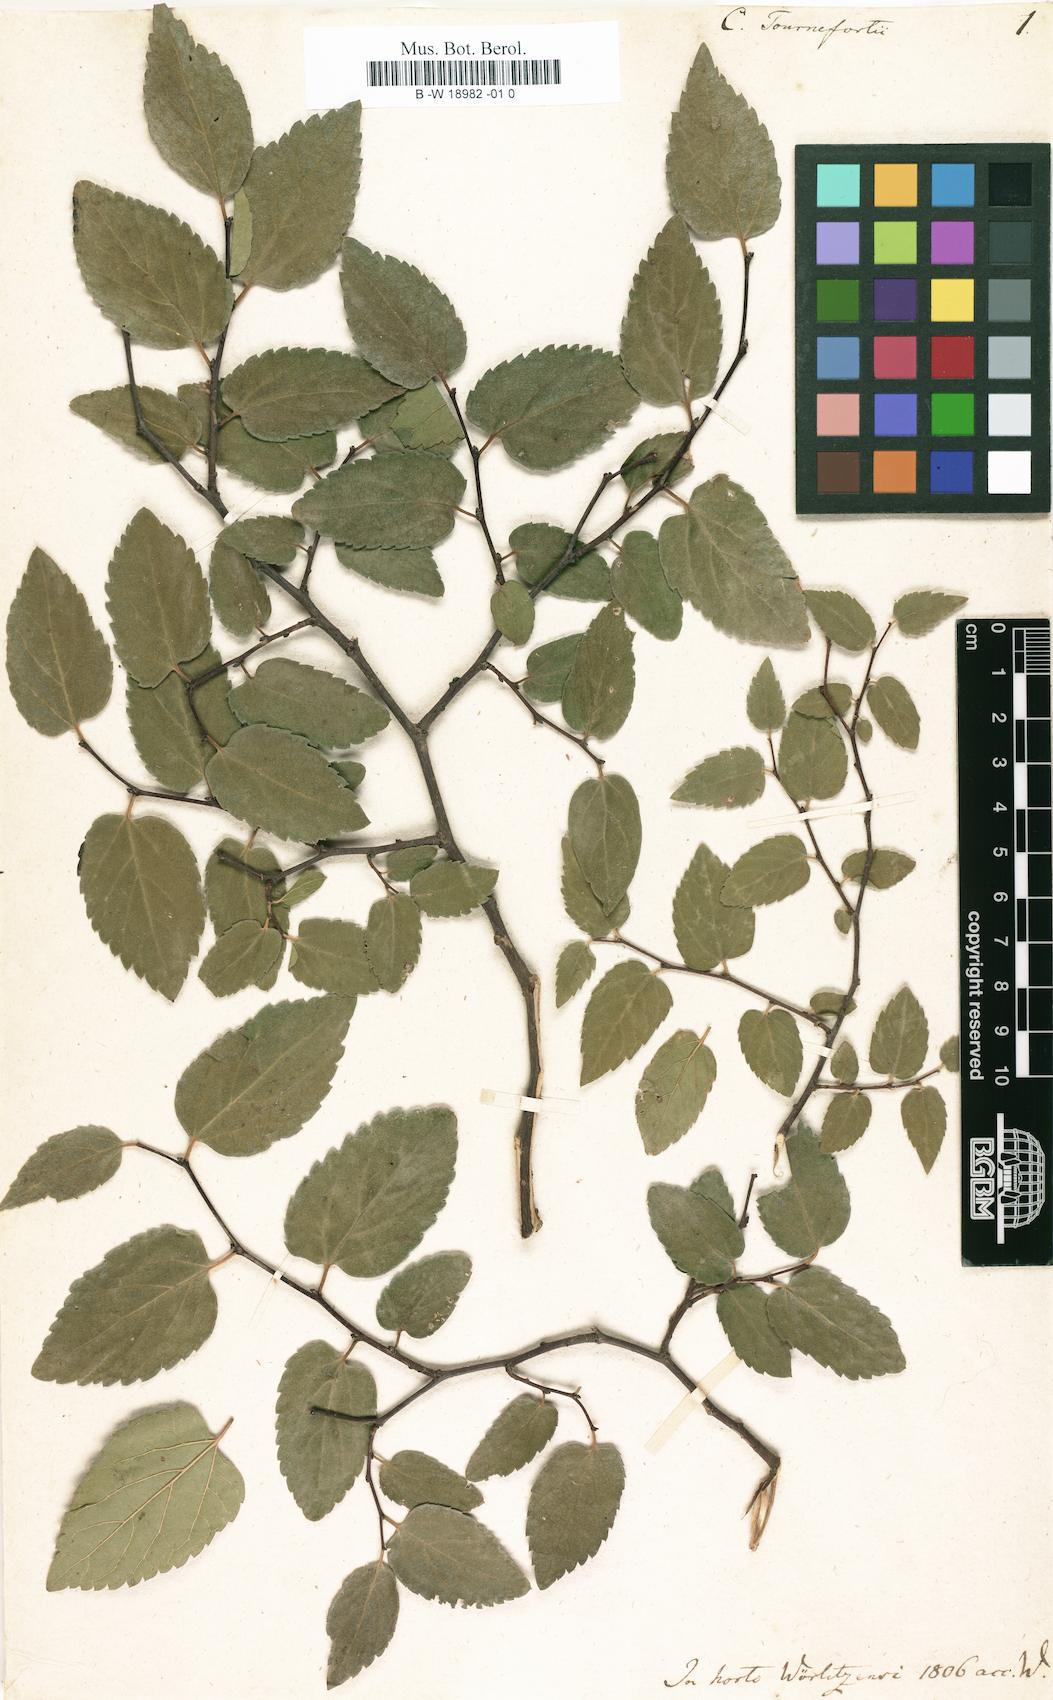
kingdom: Plantae
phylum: Tracheophyta
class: Magnoliopsida
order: Rosales
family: Cannabaceae
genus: Celtis
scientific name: Celtis tournefortii
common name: Oriental hackberry
